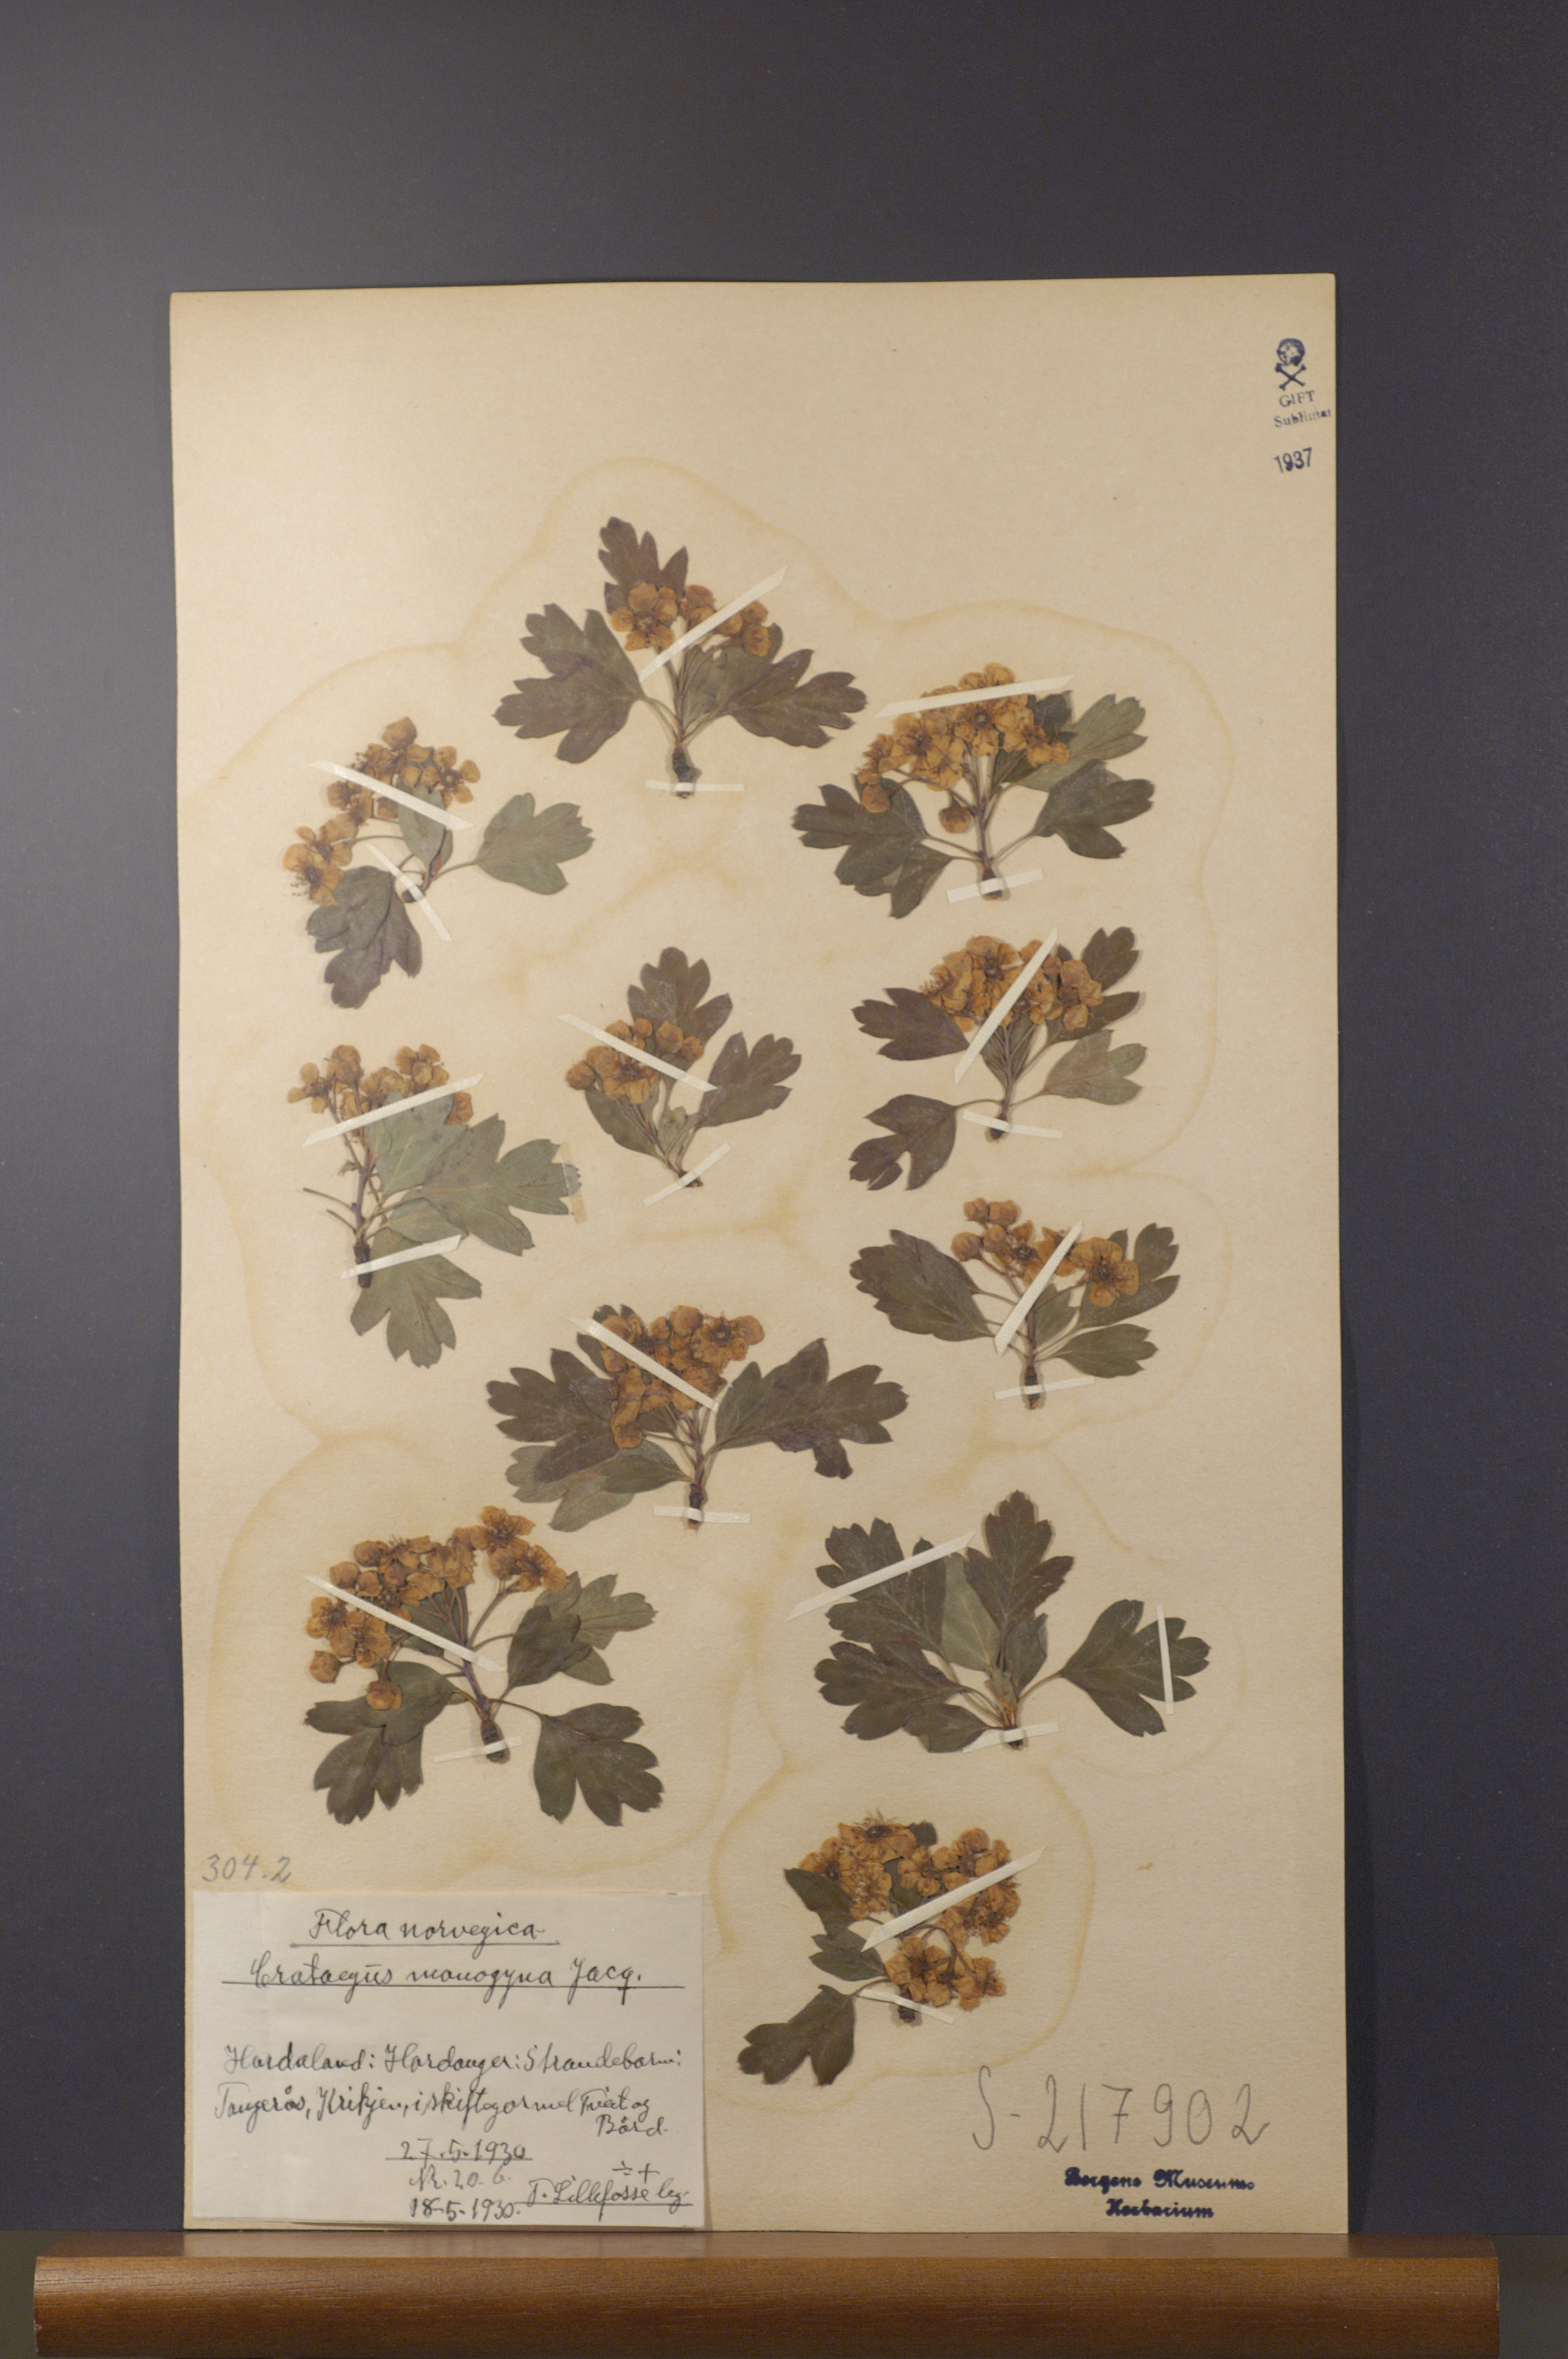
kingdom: Plantae
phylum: Tracheophyta
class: Magnoliopsida
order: Rosales
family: Rosaceae
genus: Crataegus
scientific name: Crataegus monogyna
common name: Hawthorn
